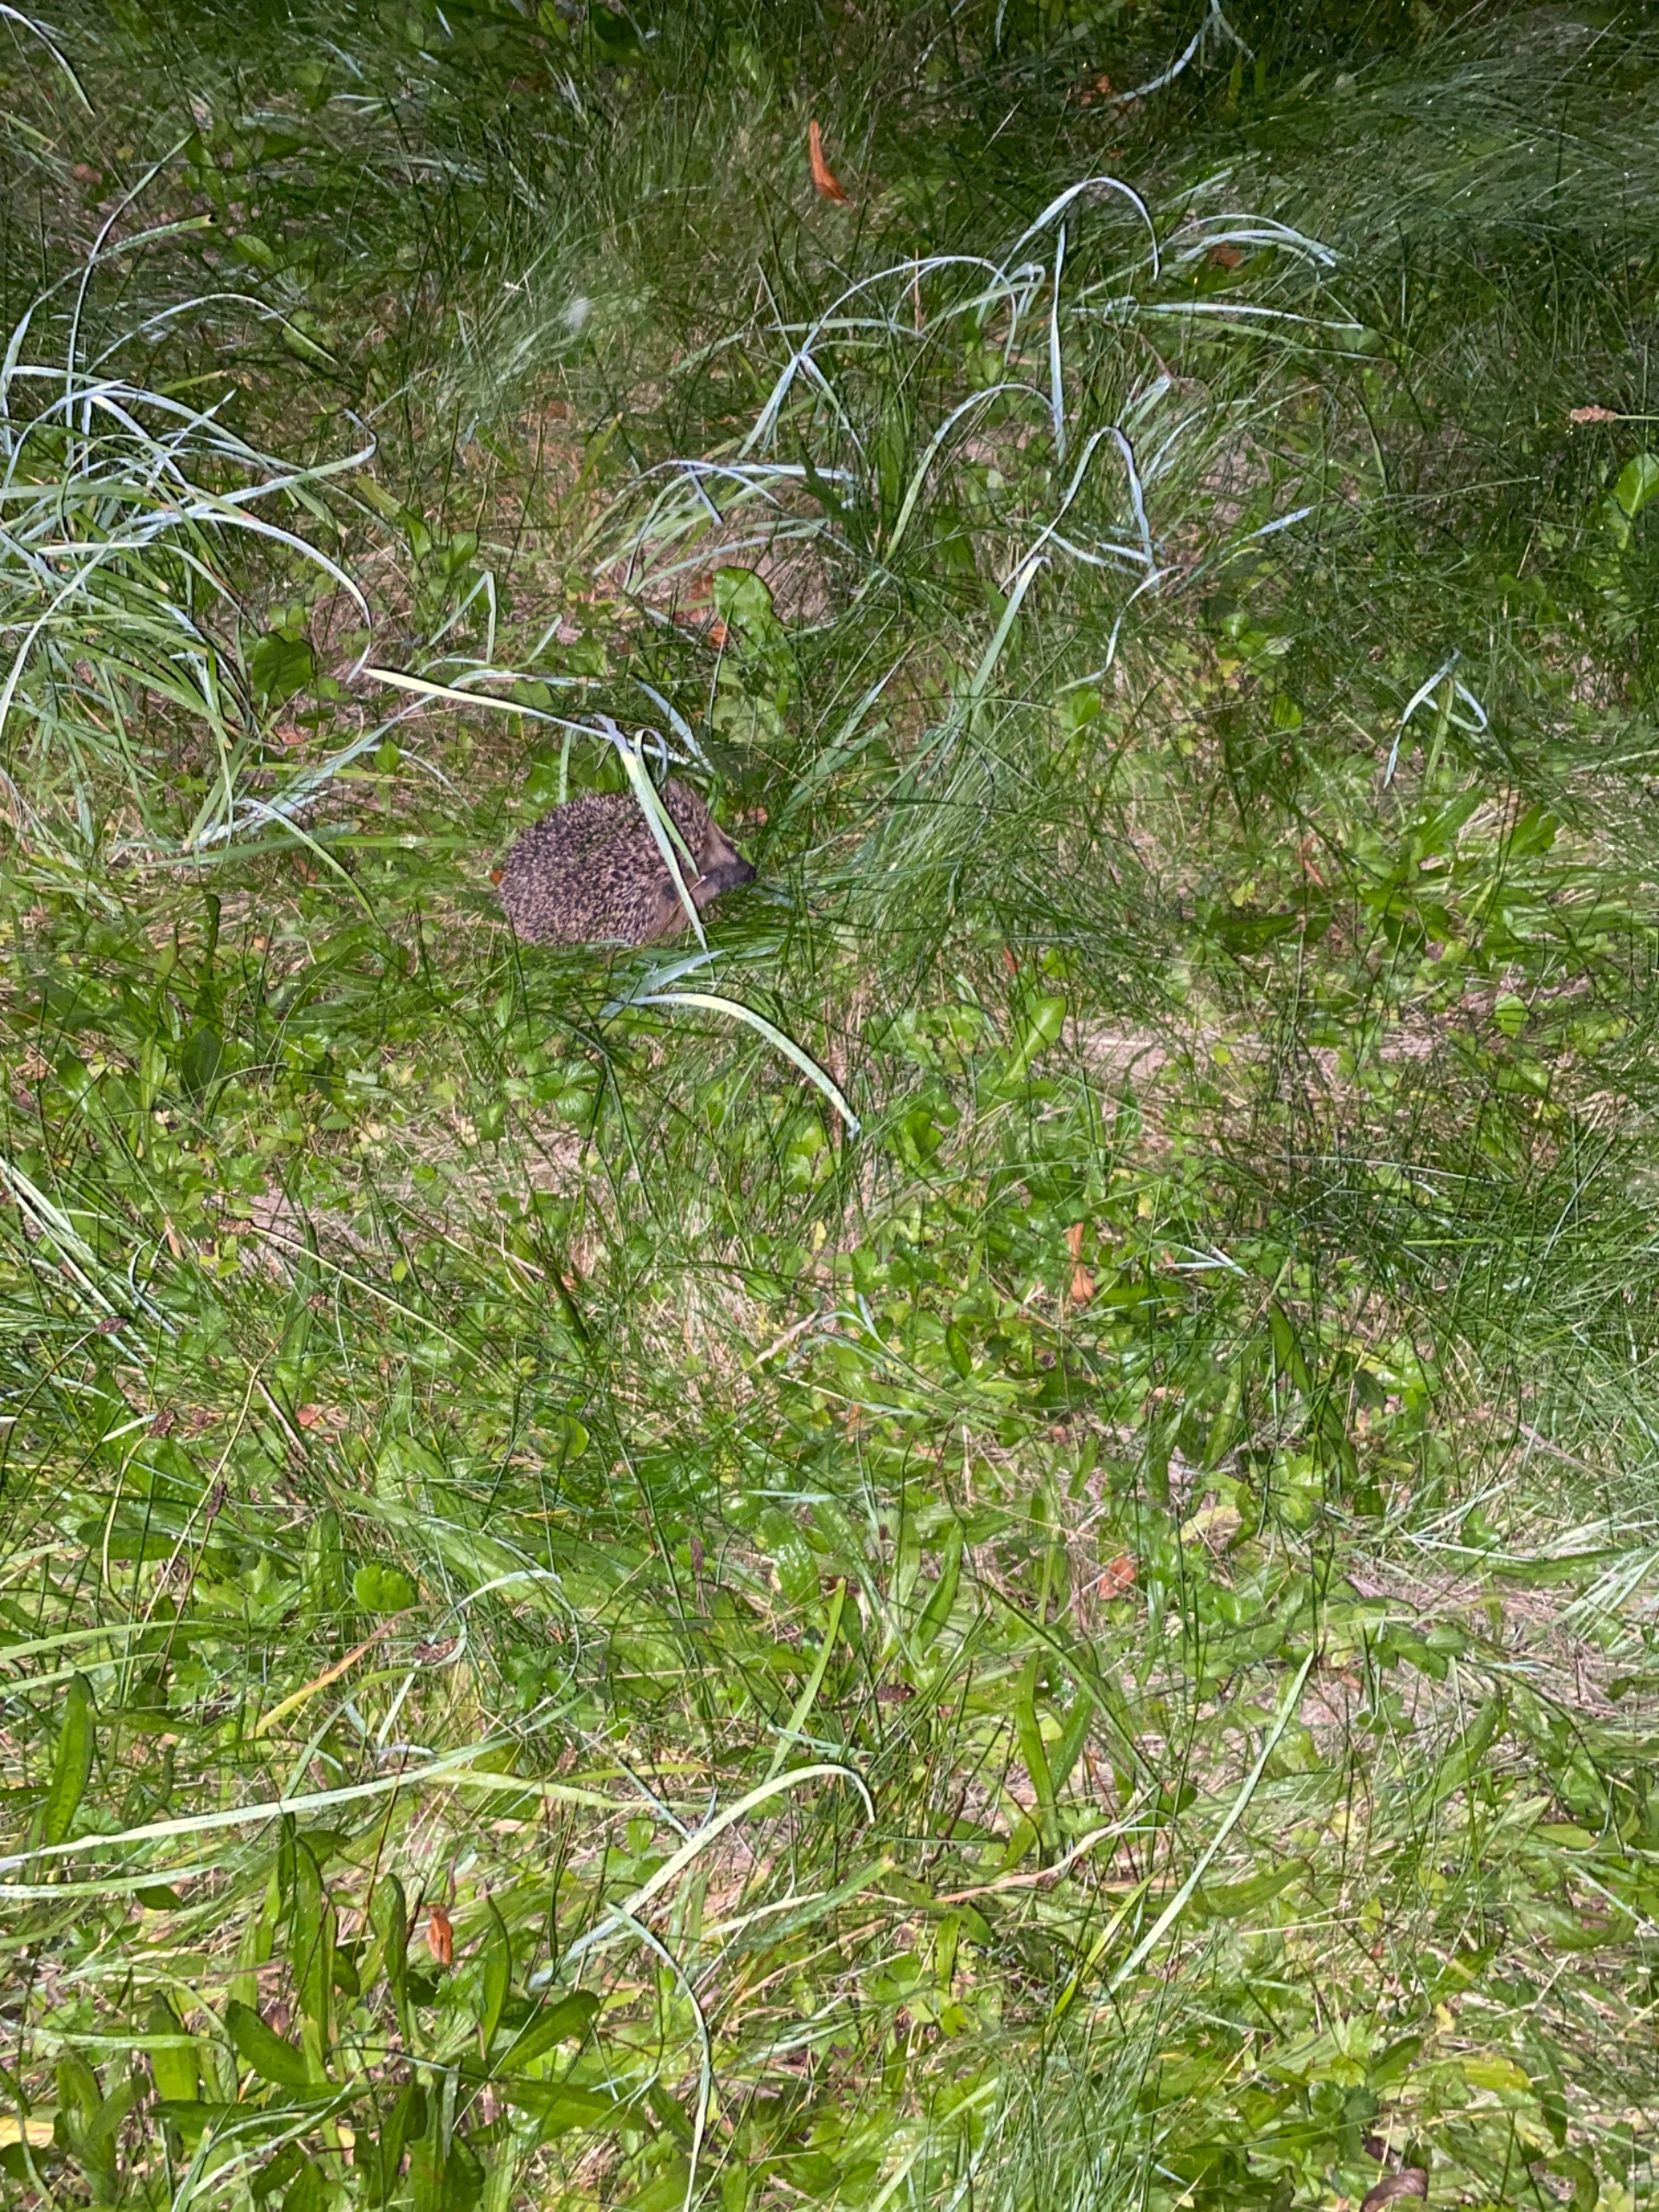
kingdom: Animalia
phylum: Chordata
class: Mammalia
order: Erinaceomorpha
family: Erinaceidae
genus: Erinaceus
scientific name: Erinaceus europaeus
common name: Pindsvin
